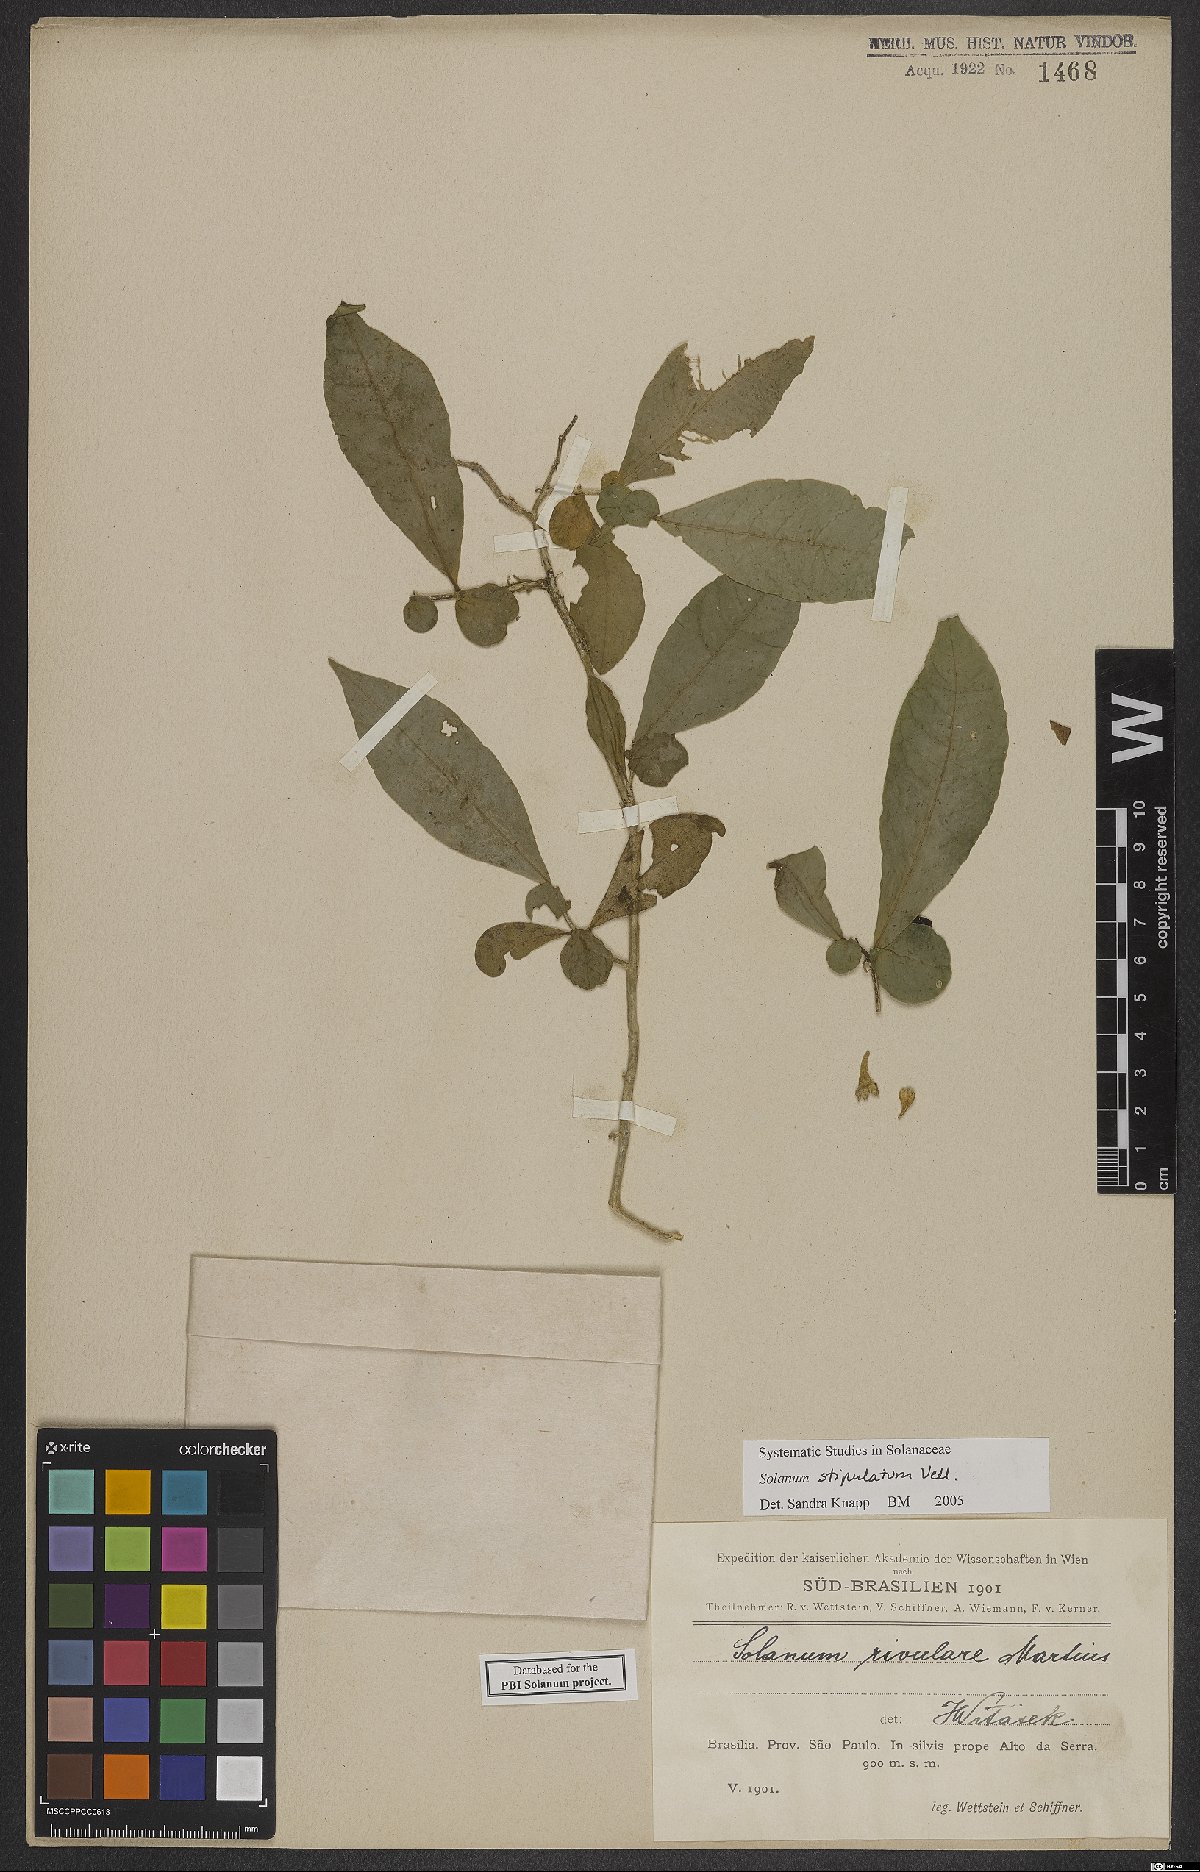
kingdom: Plantae
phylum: Tracheophyta
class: Magnoliopsida
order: Solanales
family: Solanaceae
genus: Solanum
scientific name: Solanum stipulatum
